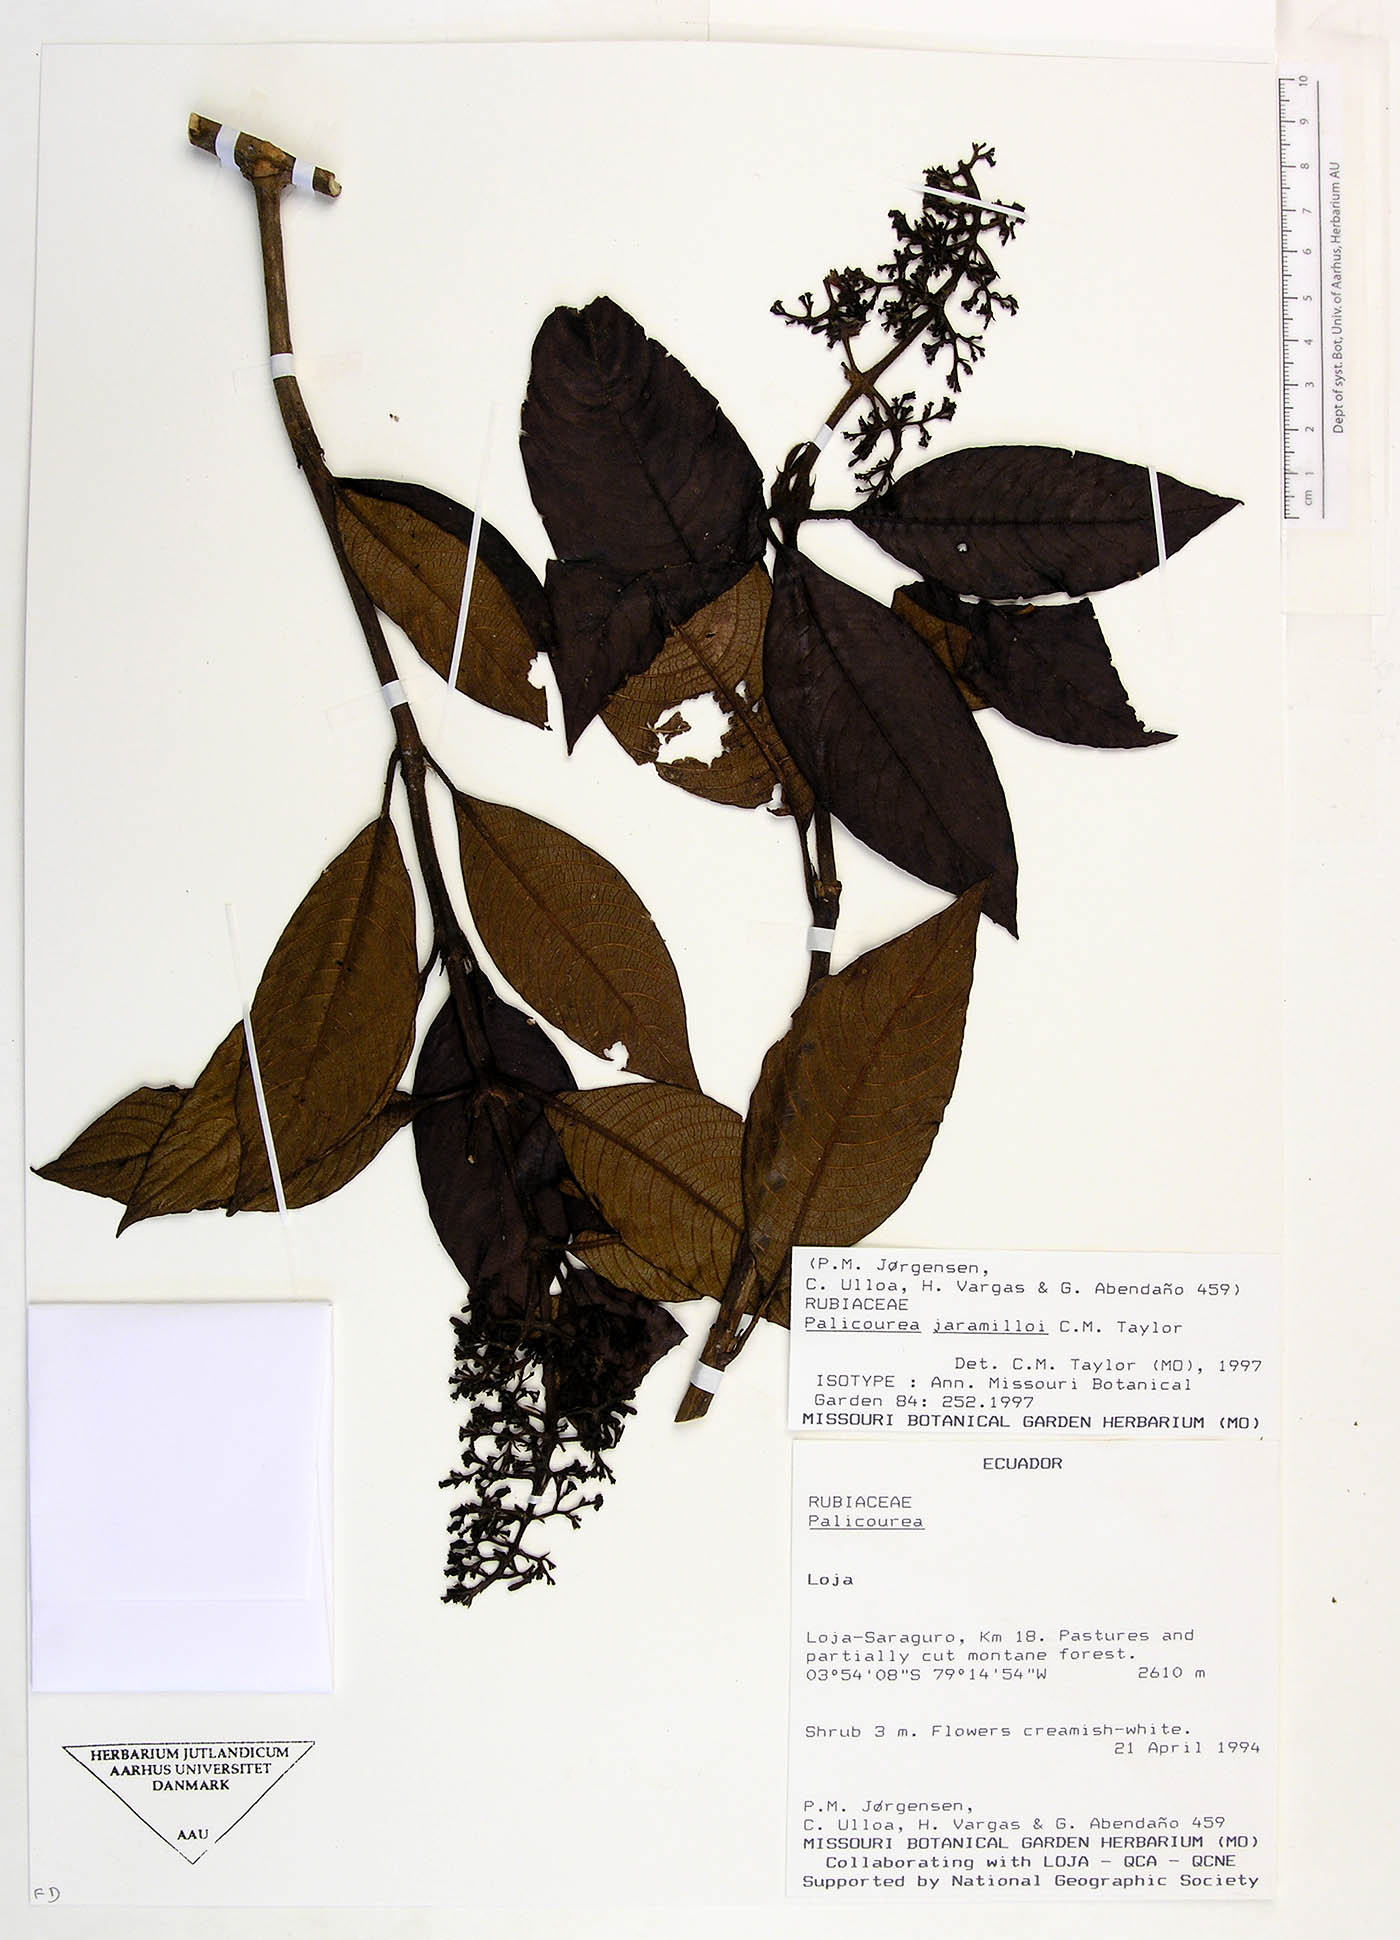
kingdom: Plantae
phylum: Tracheophyta
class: Magnoliopsida
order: Gentianales
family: Rubiaceae
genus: Palicourea
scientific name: Palicourea jaramilloi
